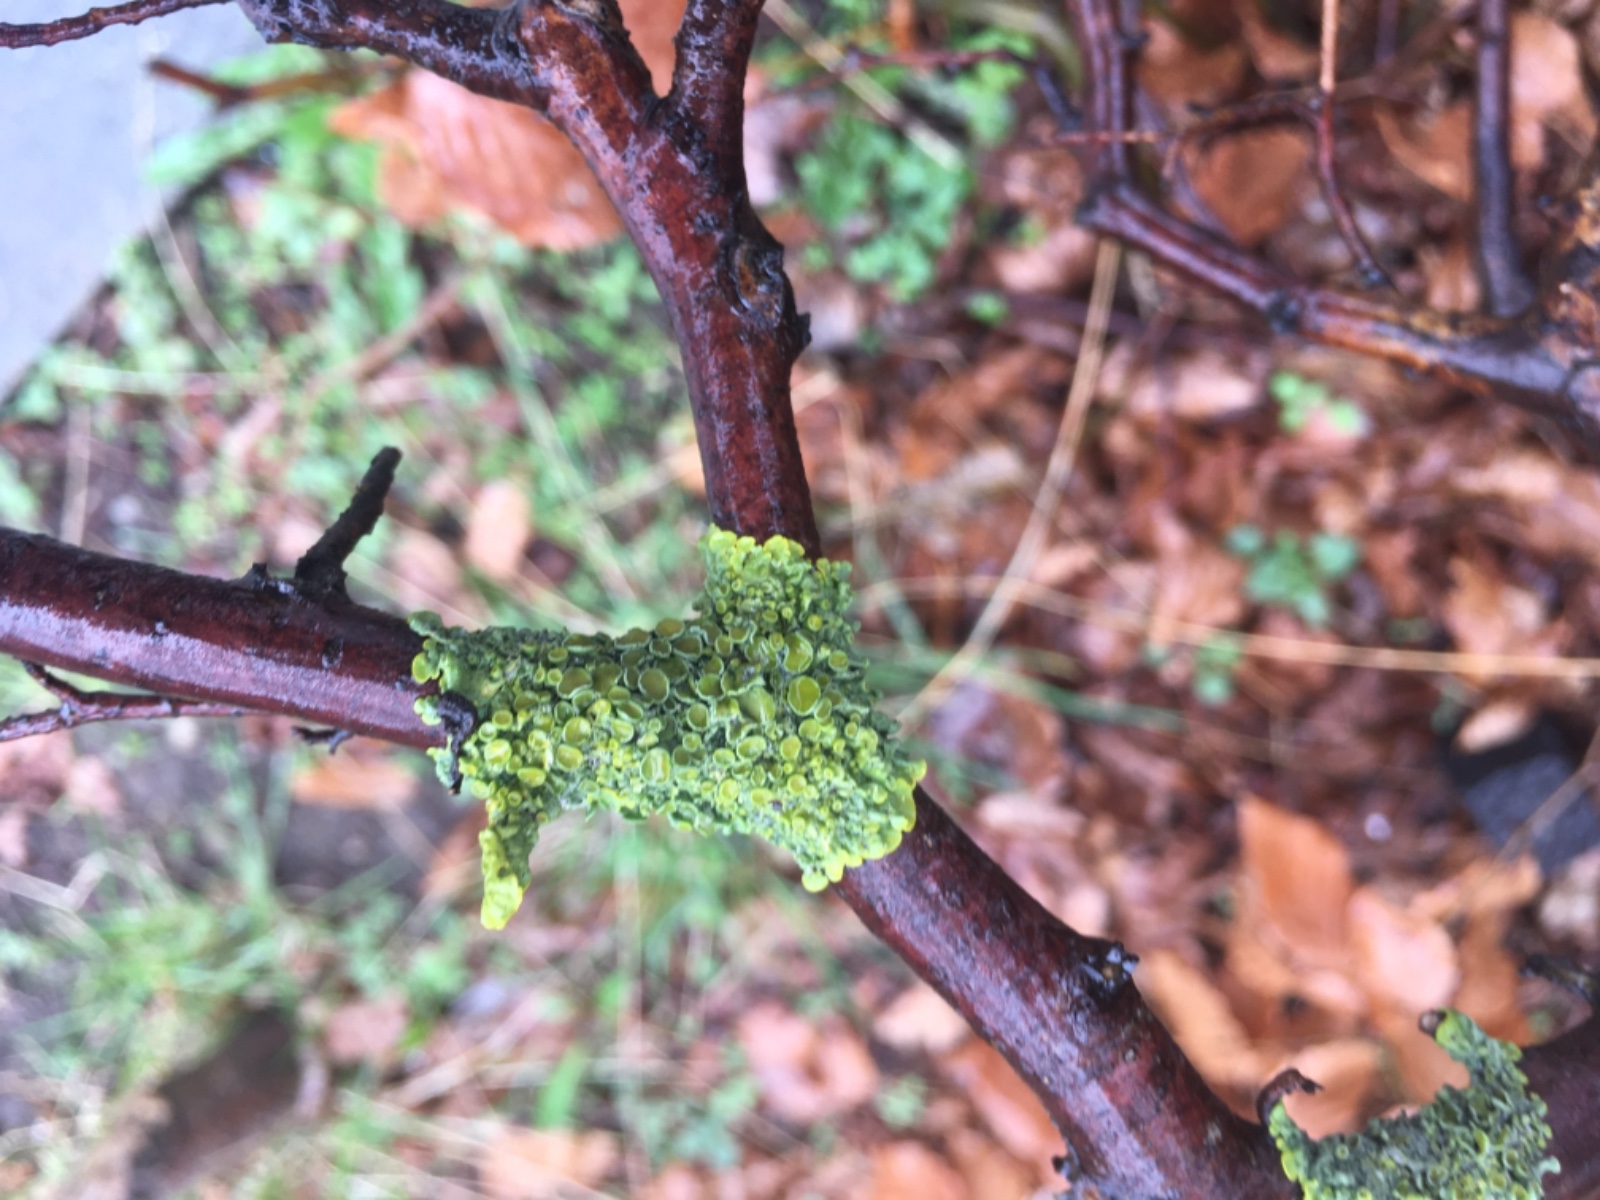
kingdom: Fungi
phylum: Ascomycota
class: Lecanoromycetes
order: Teloschistales
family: Teloschistaceae
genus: Xanthoria
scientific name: Xanthoria parietina
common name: almindelig væggelav
